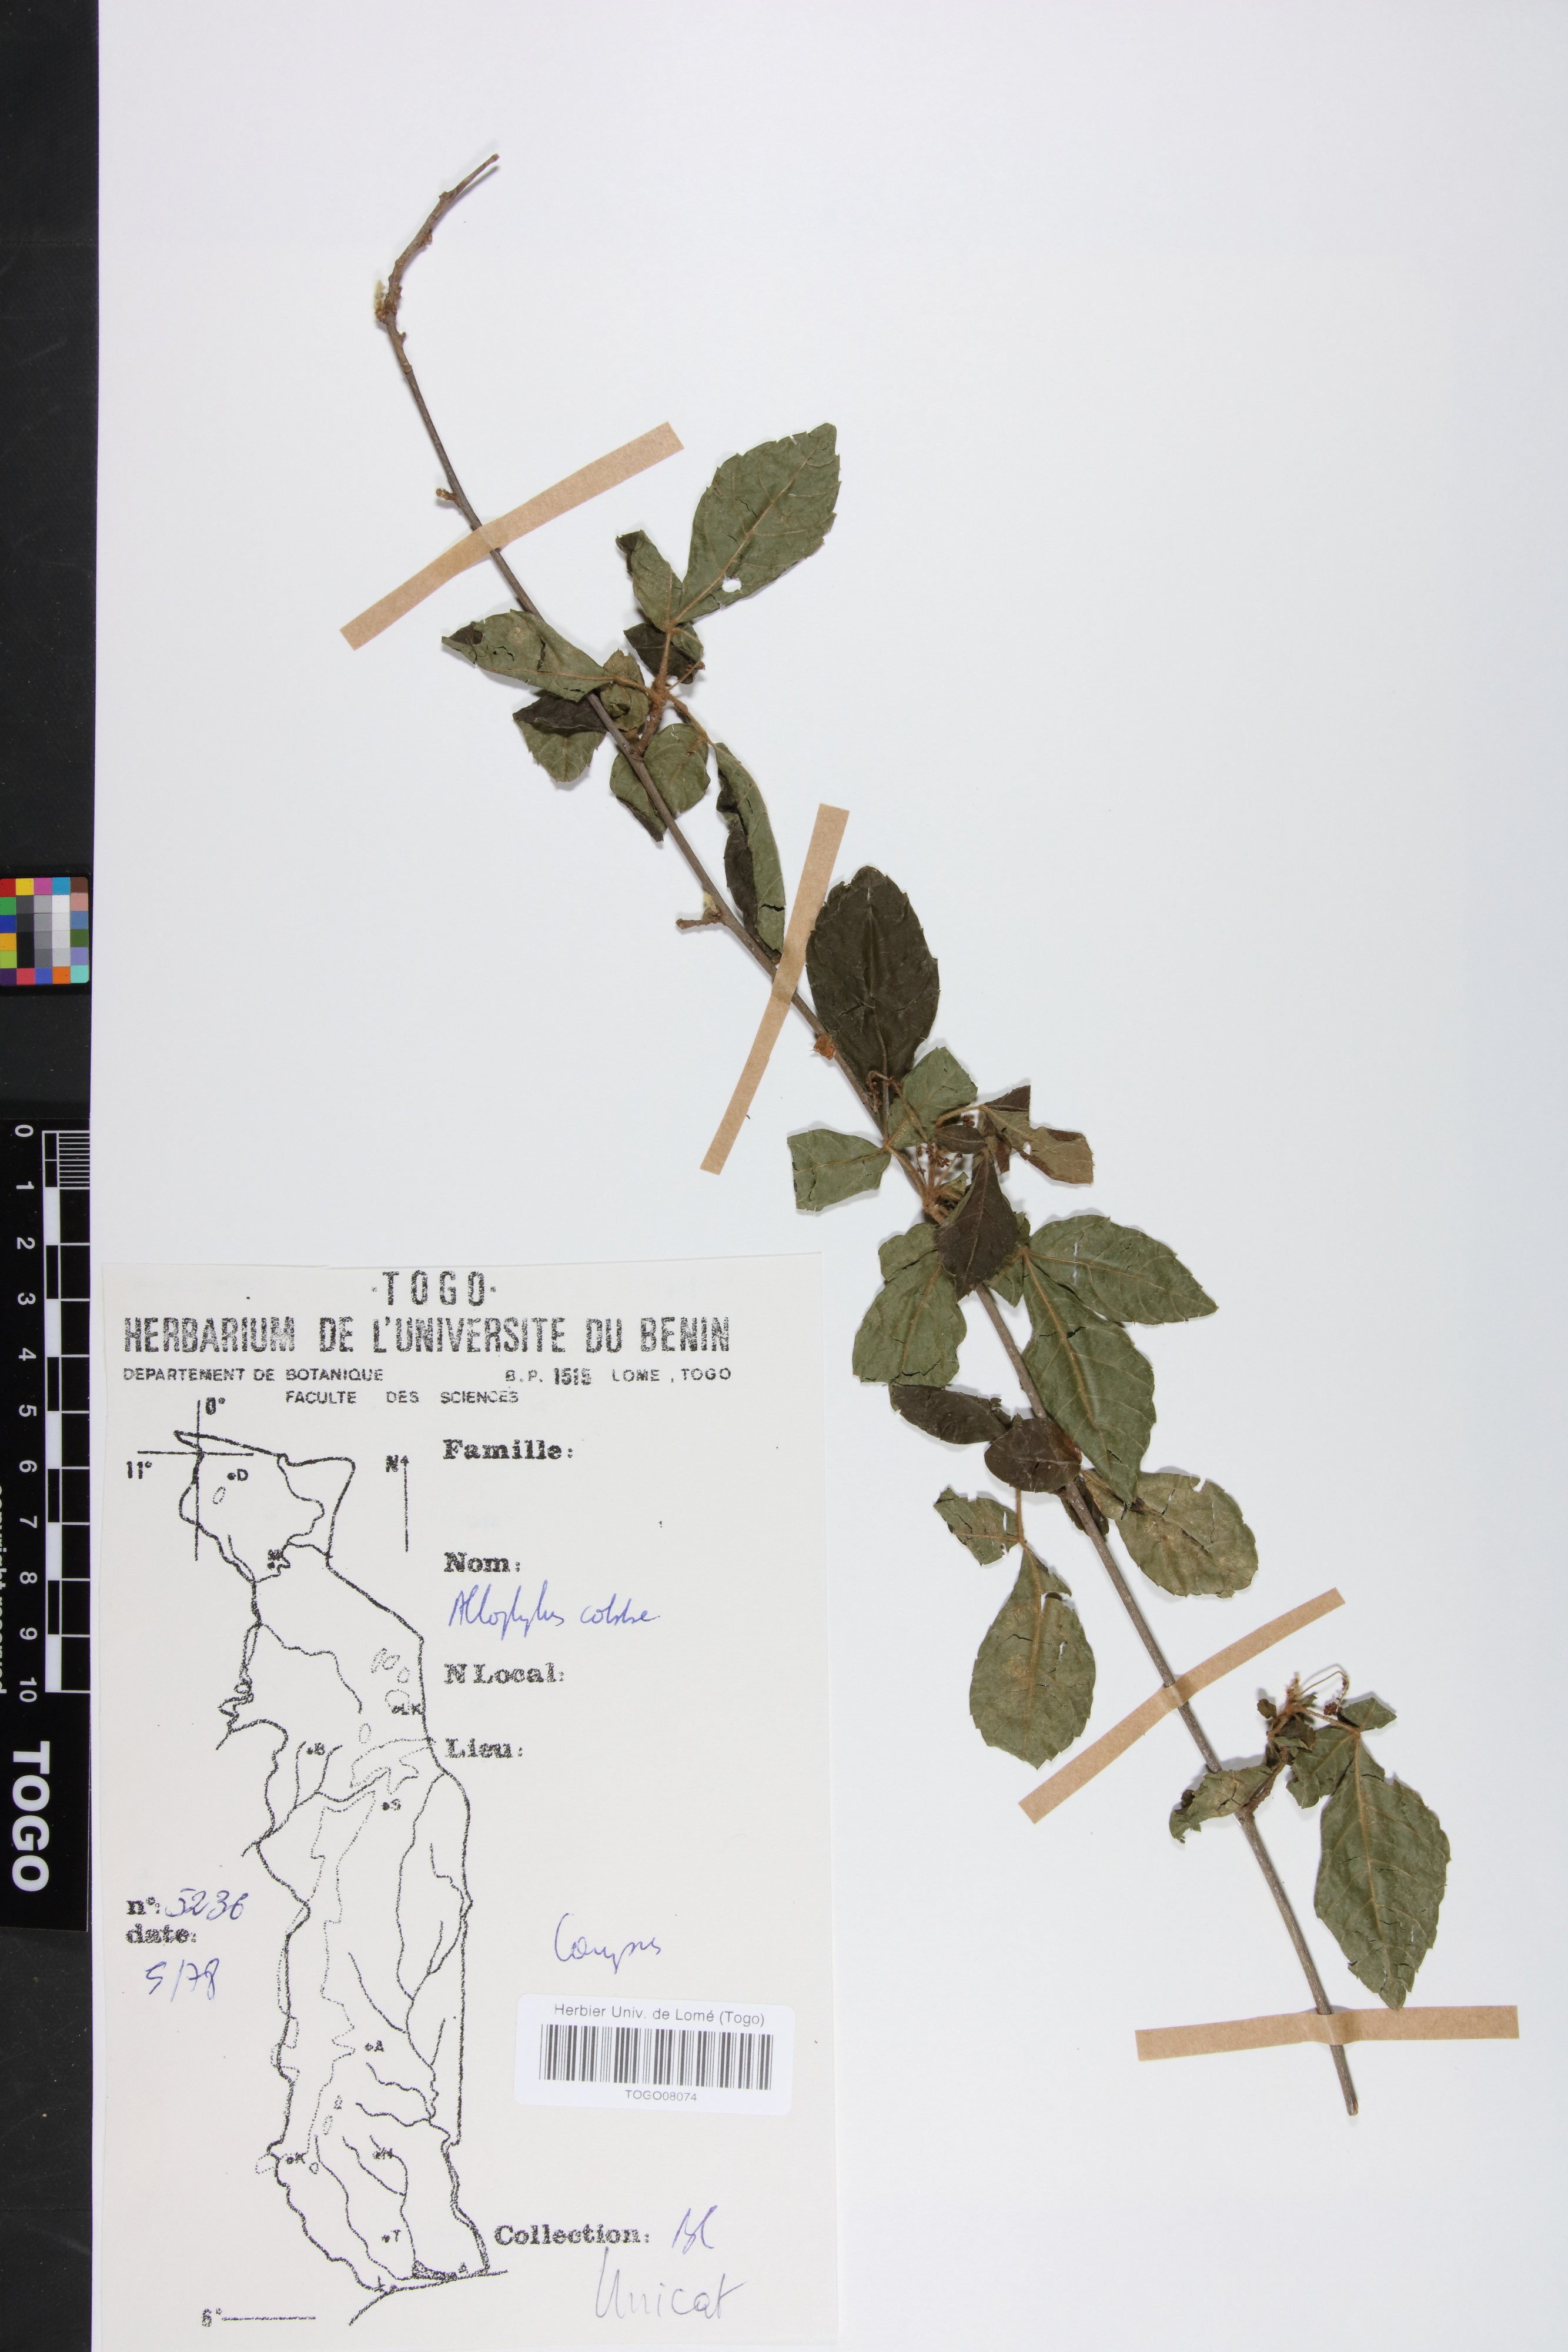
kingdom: Plantae
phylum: Tracheophyta
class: Magnoliopsida
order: Sapindales
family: Sapindaceae
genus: Allophylus
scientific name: Allophylus cobbe
